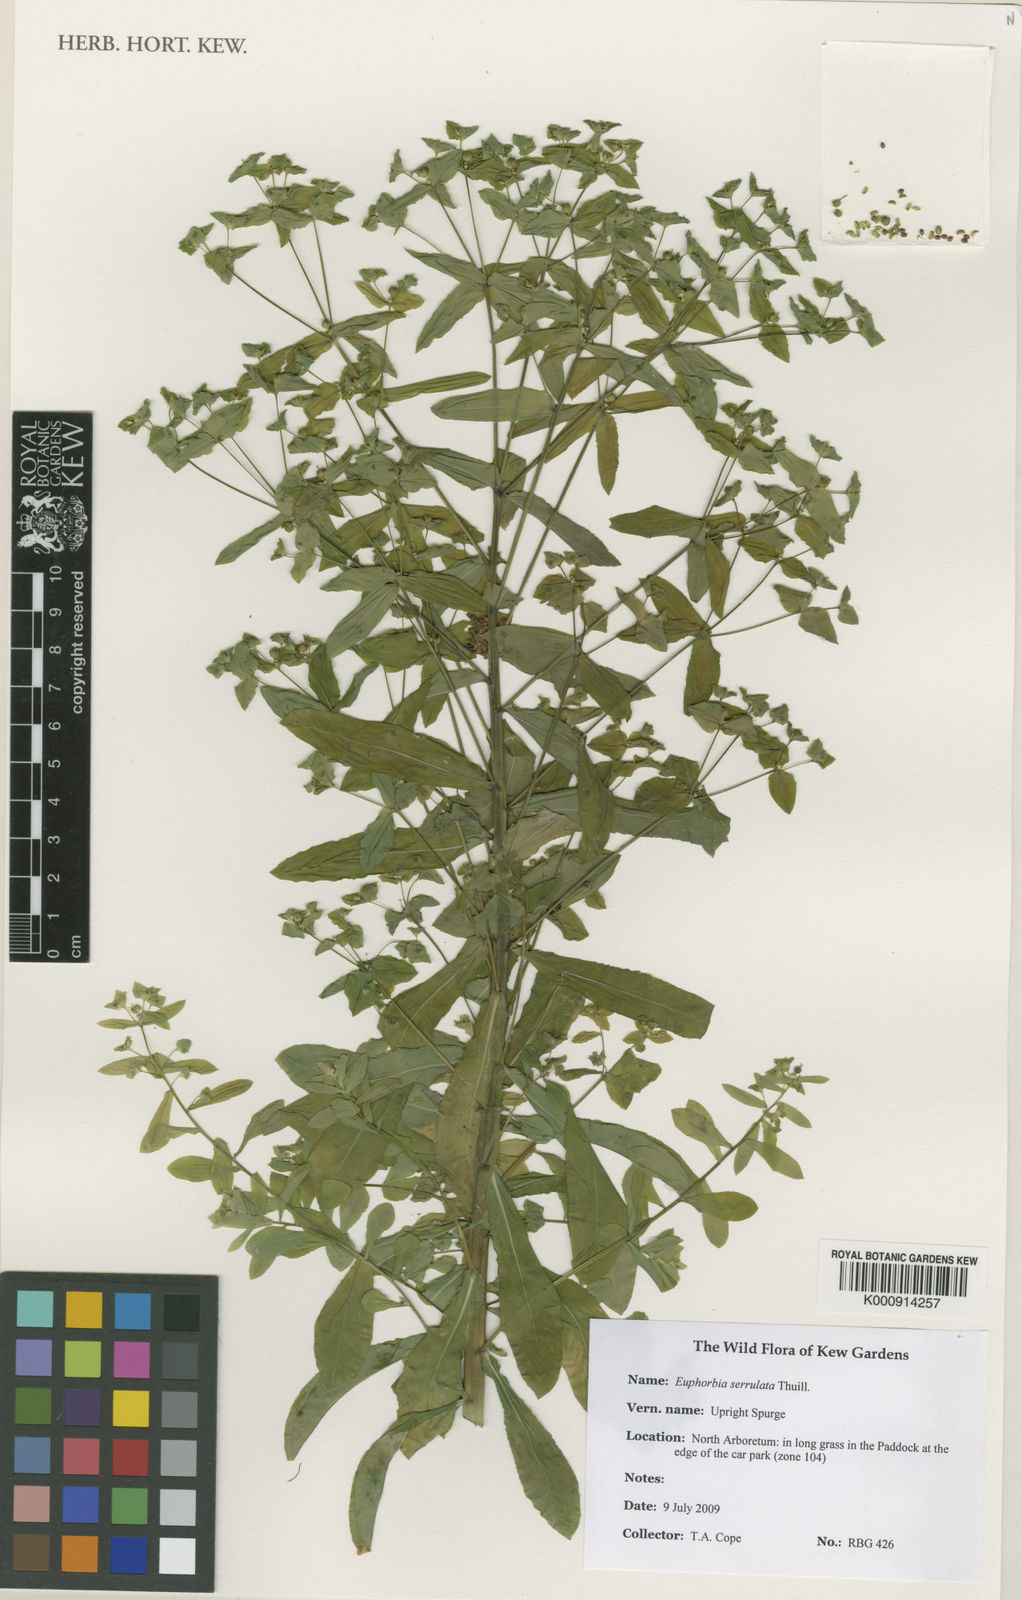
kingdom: Plantae
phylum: Tracheophyta
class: Magnoliopsida
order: Malpighiales
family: Euphorbiaceae
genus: Euphorbia
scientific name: Euphorbia stricta
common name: Upright spurge
